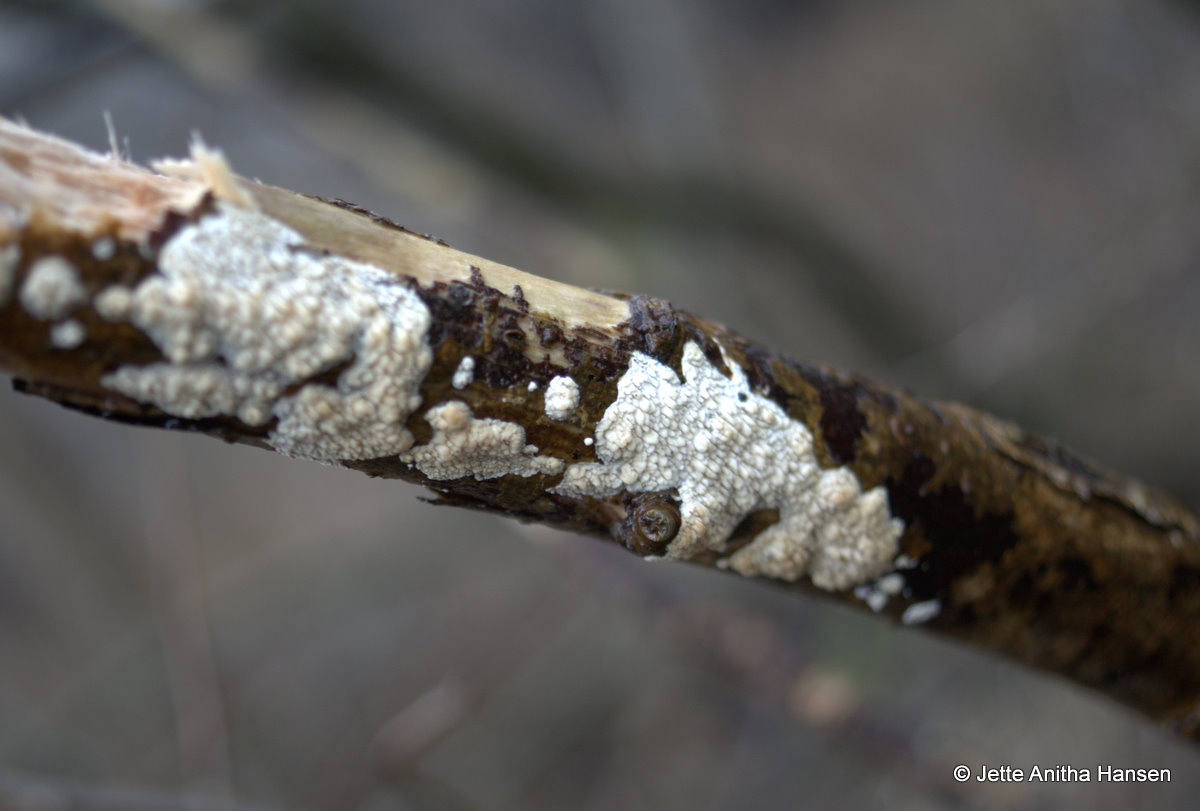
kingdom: Fungi
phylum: Basidiomycota
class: Agaricomycetes
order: Hymenochaetales
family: Schizoporaceae
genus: Xylodon
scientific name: Xylodon radula
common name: grovtandet kalkskind
